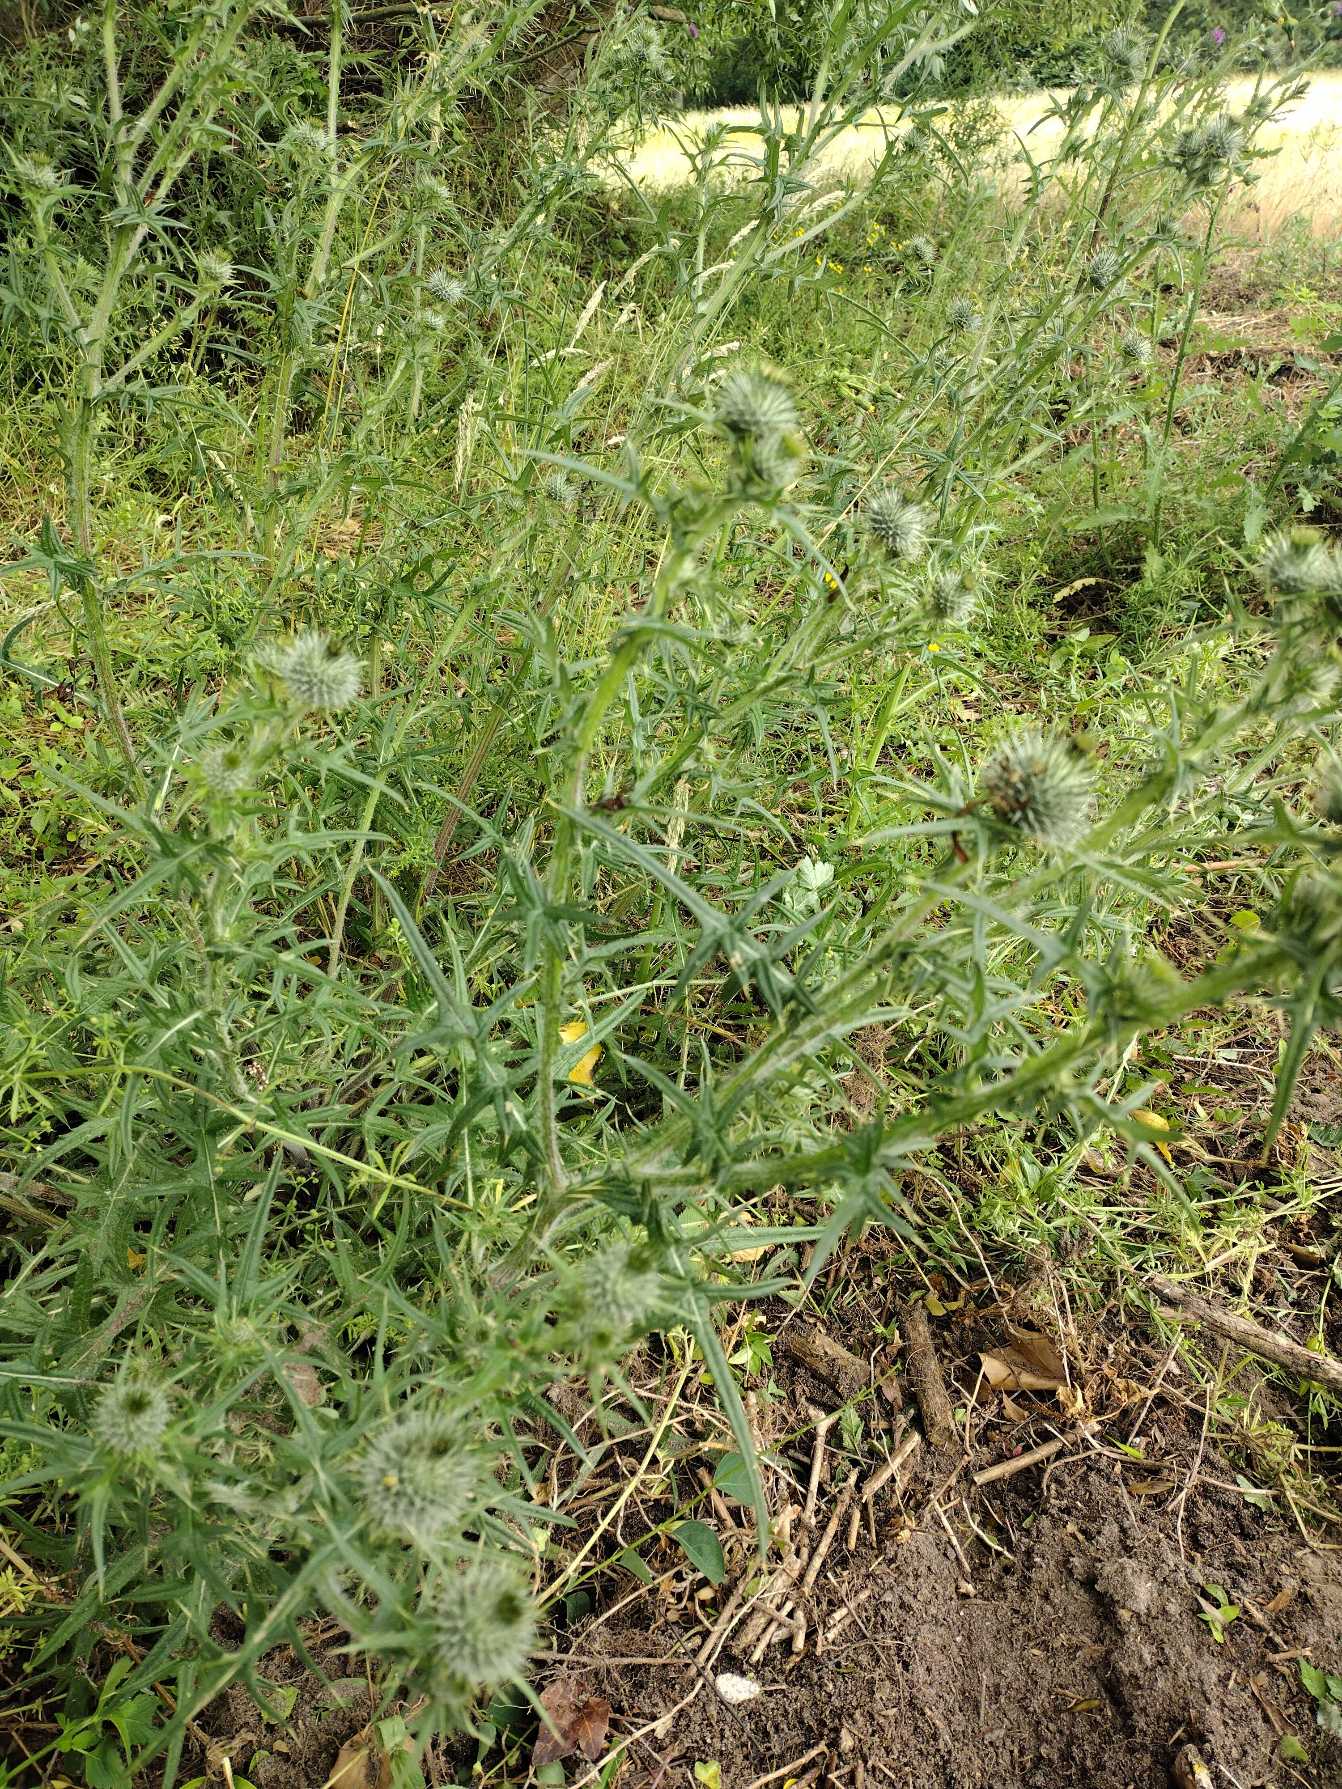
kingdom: Plantae
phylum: Tracheophyta
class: Magnoliopsida
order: Asterales
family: Asteraceae
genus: Cirsium
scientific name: Cirsium vulgare
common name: Horse-tidsel
